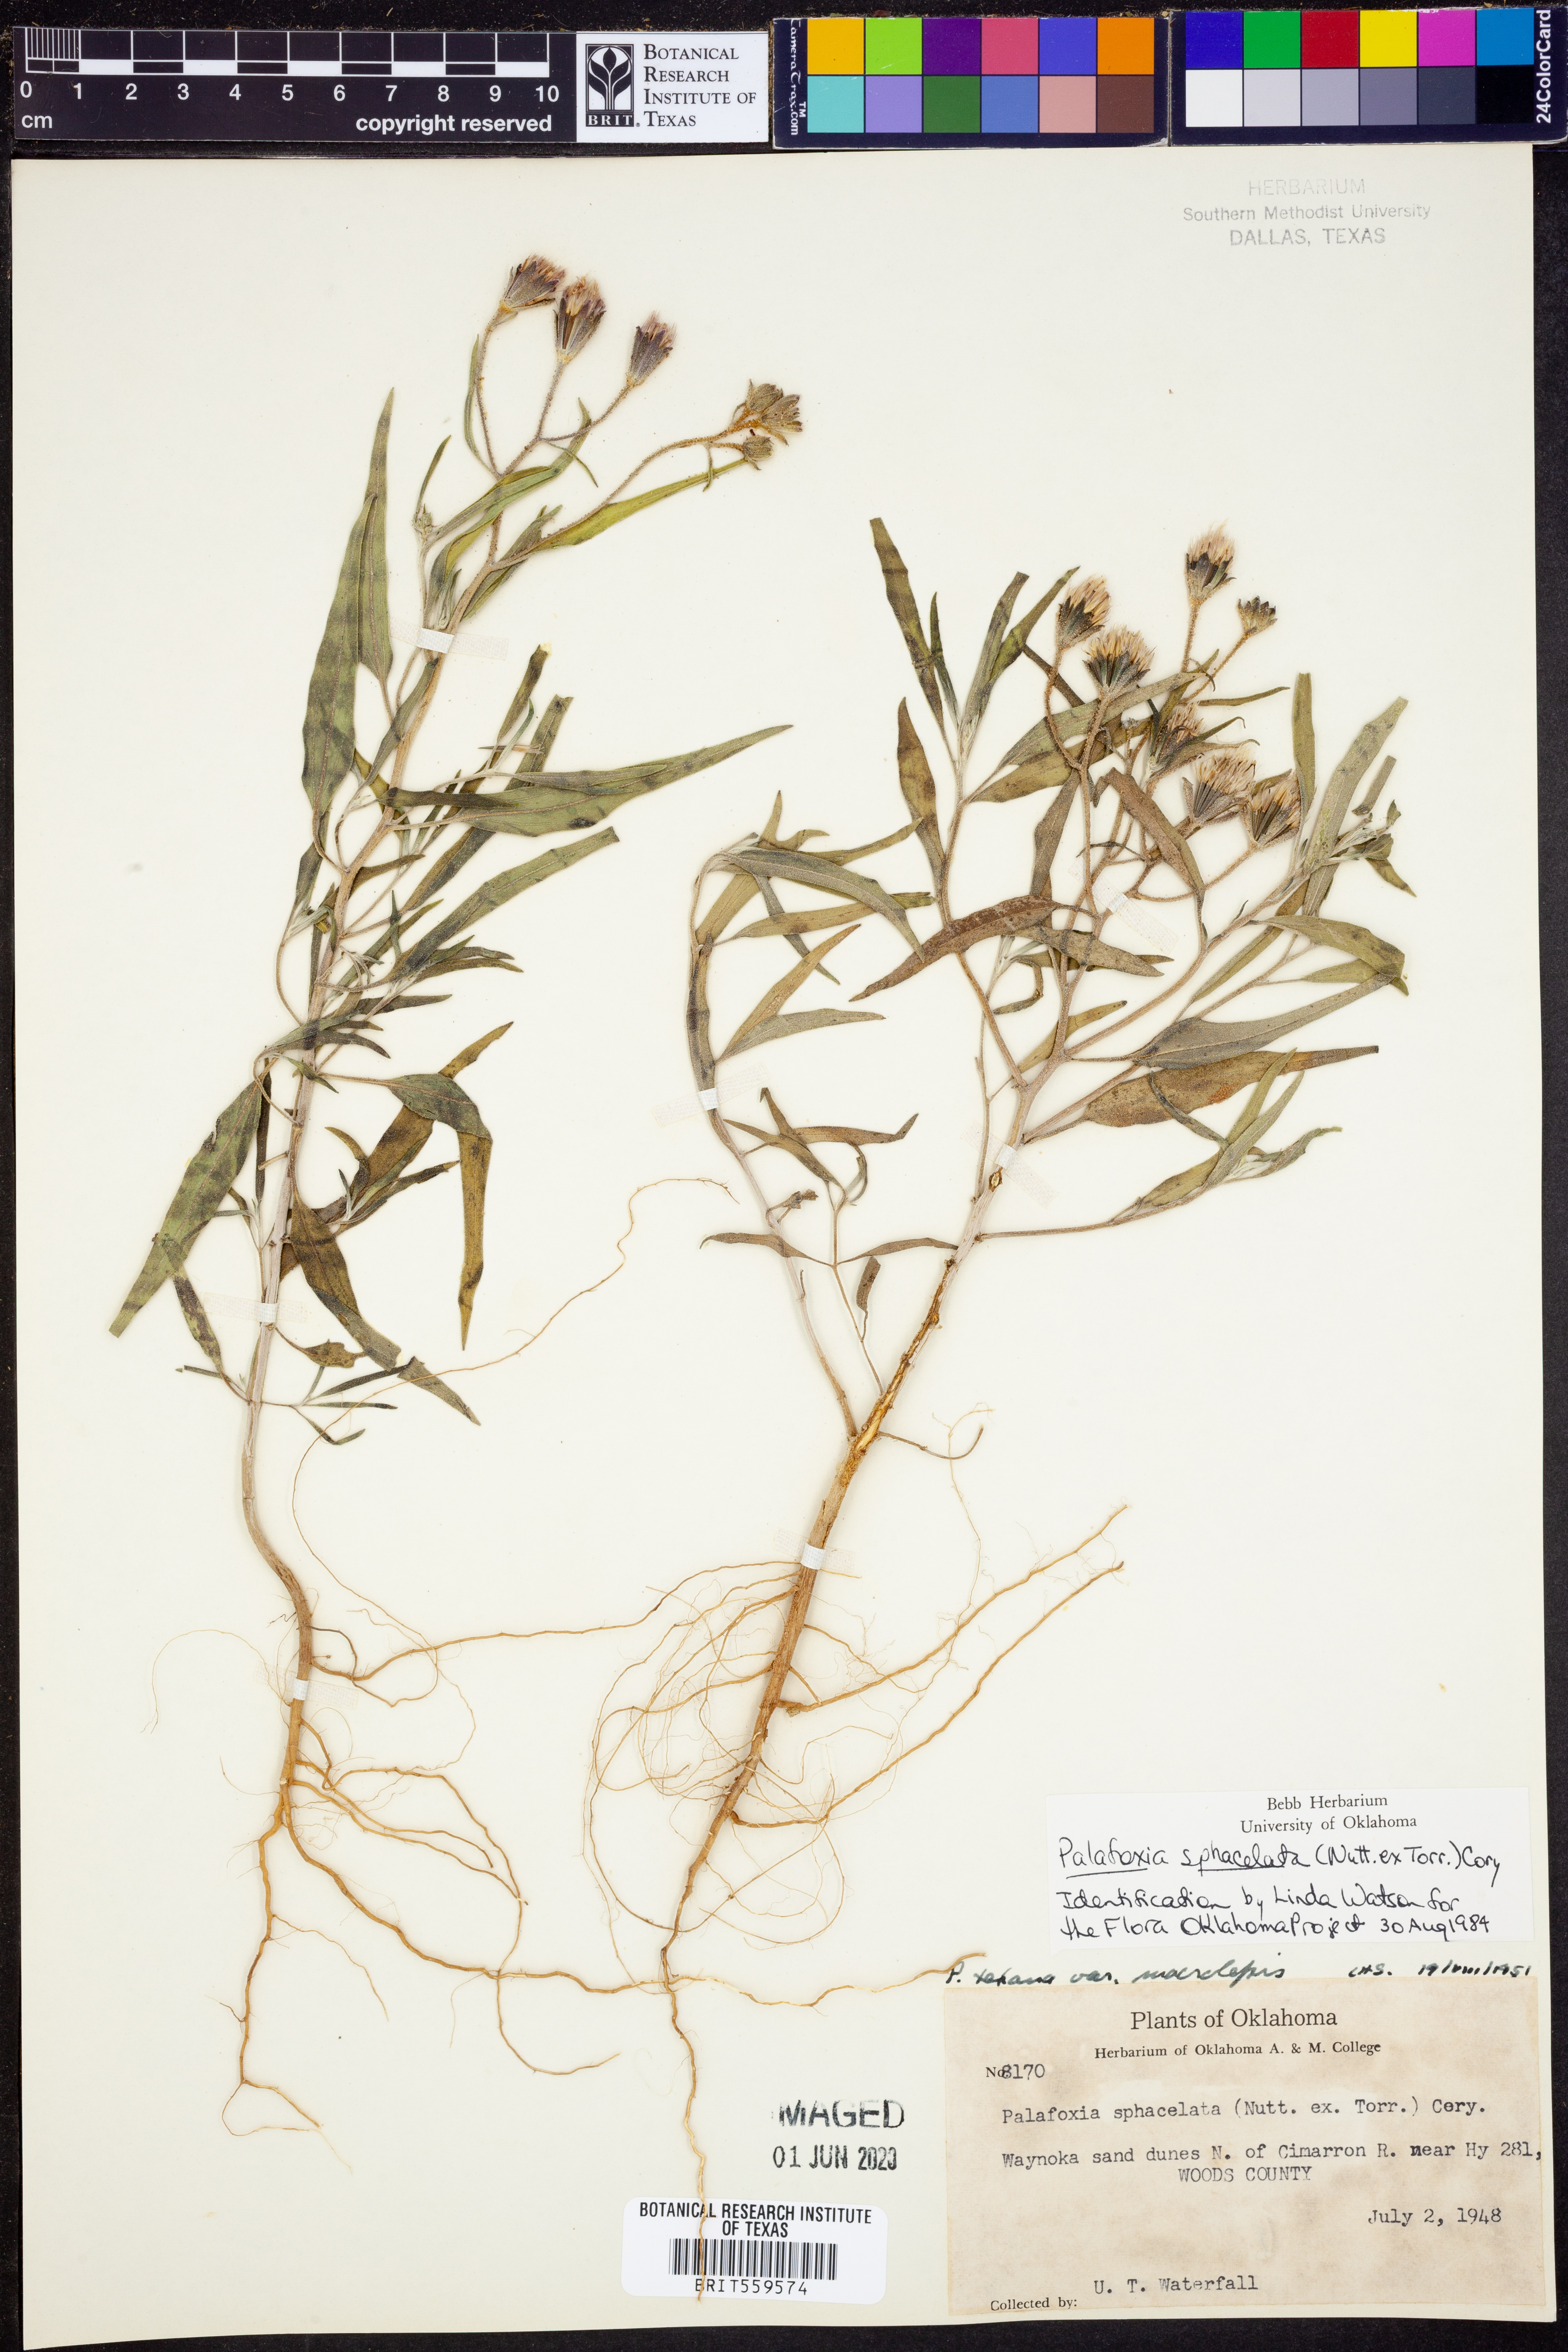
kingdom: Plantae
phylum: Tracheophyta
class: Magnoliopsida
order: Asterales
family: Asteraceae
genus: Palafoxia
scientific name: Palafoxia sphacelata
